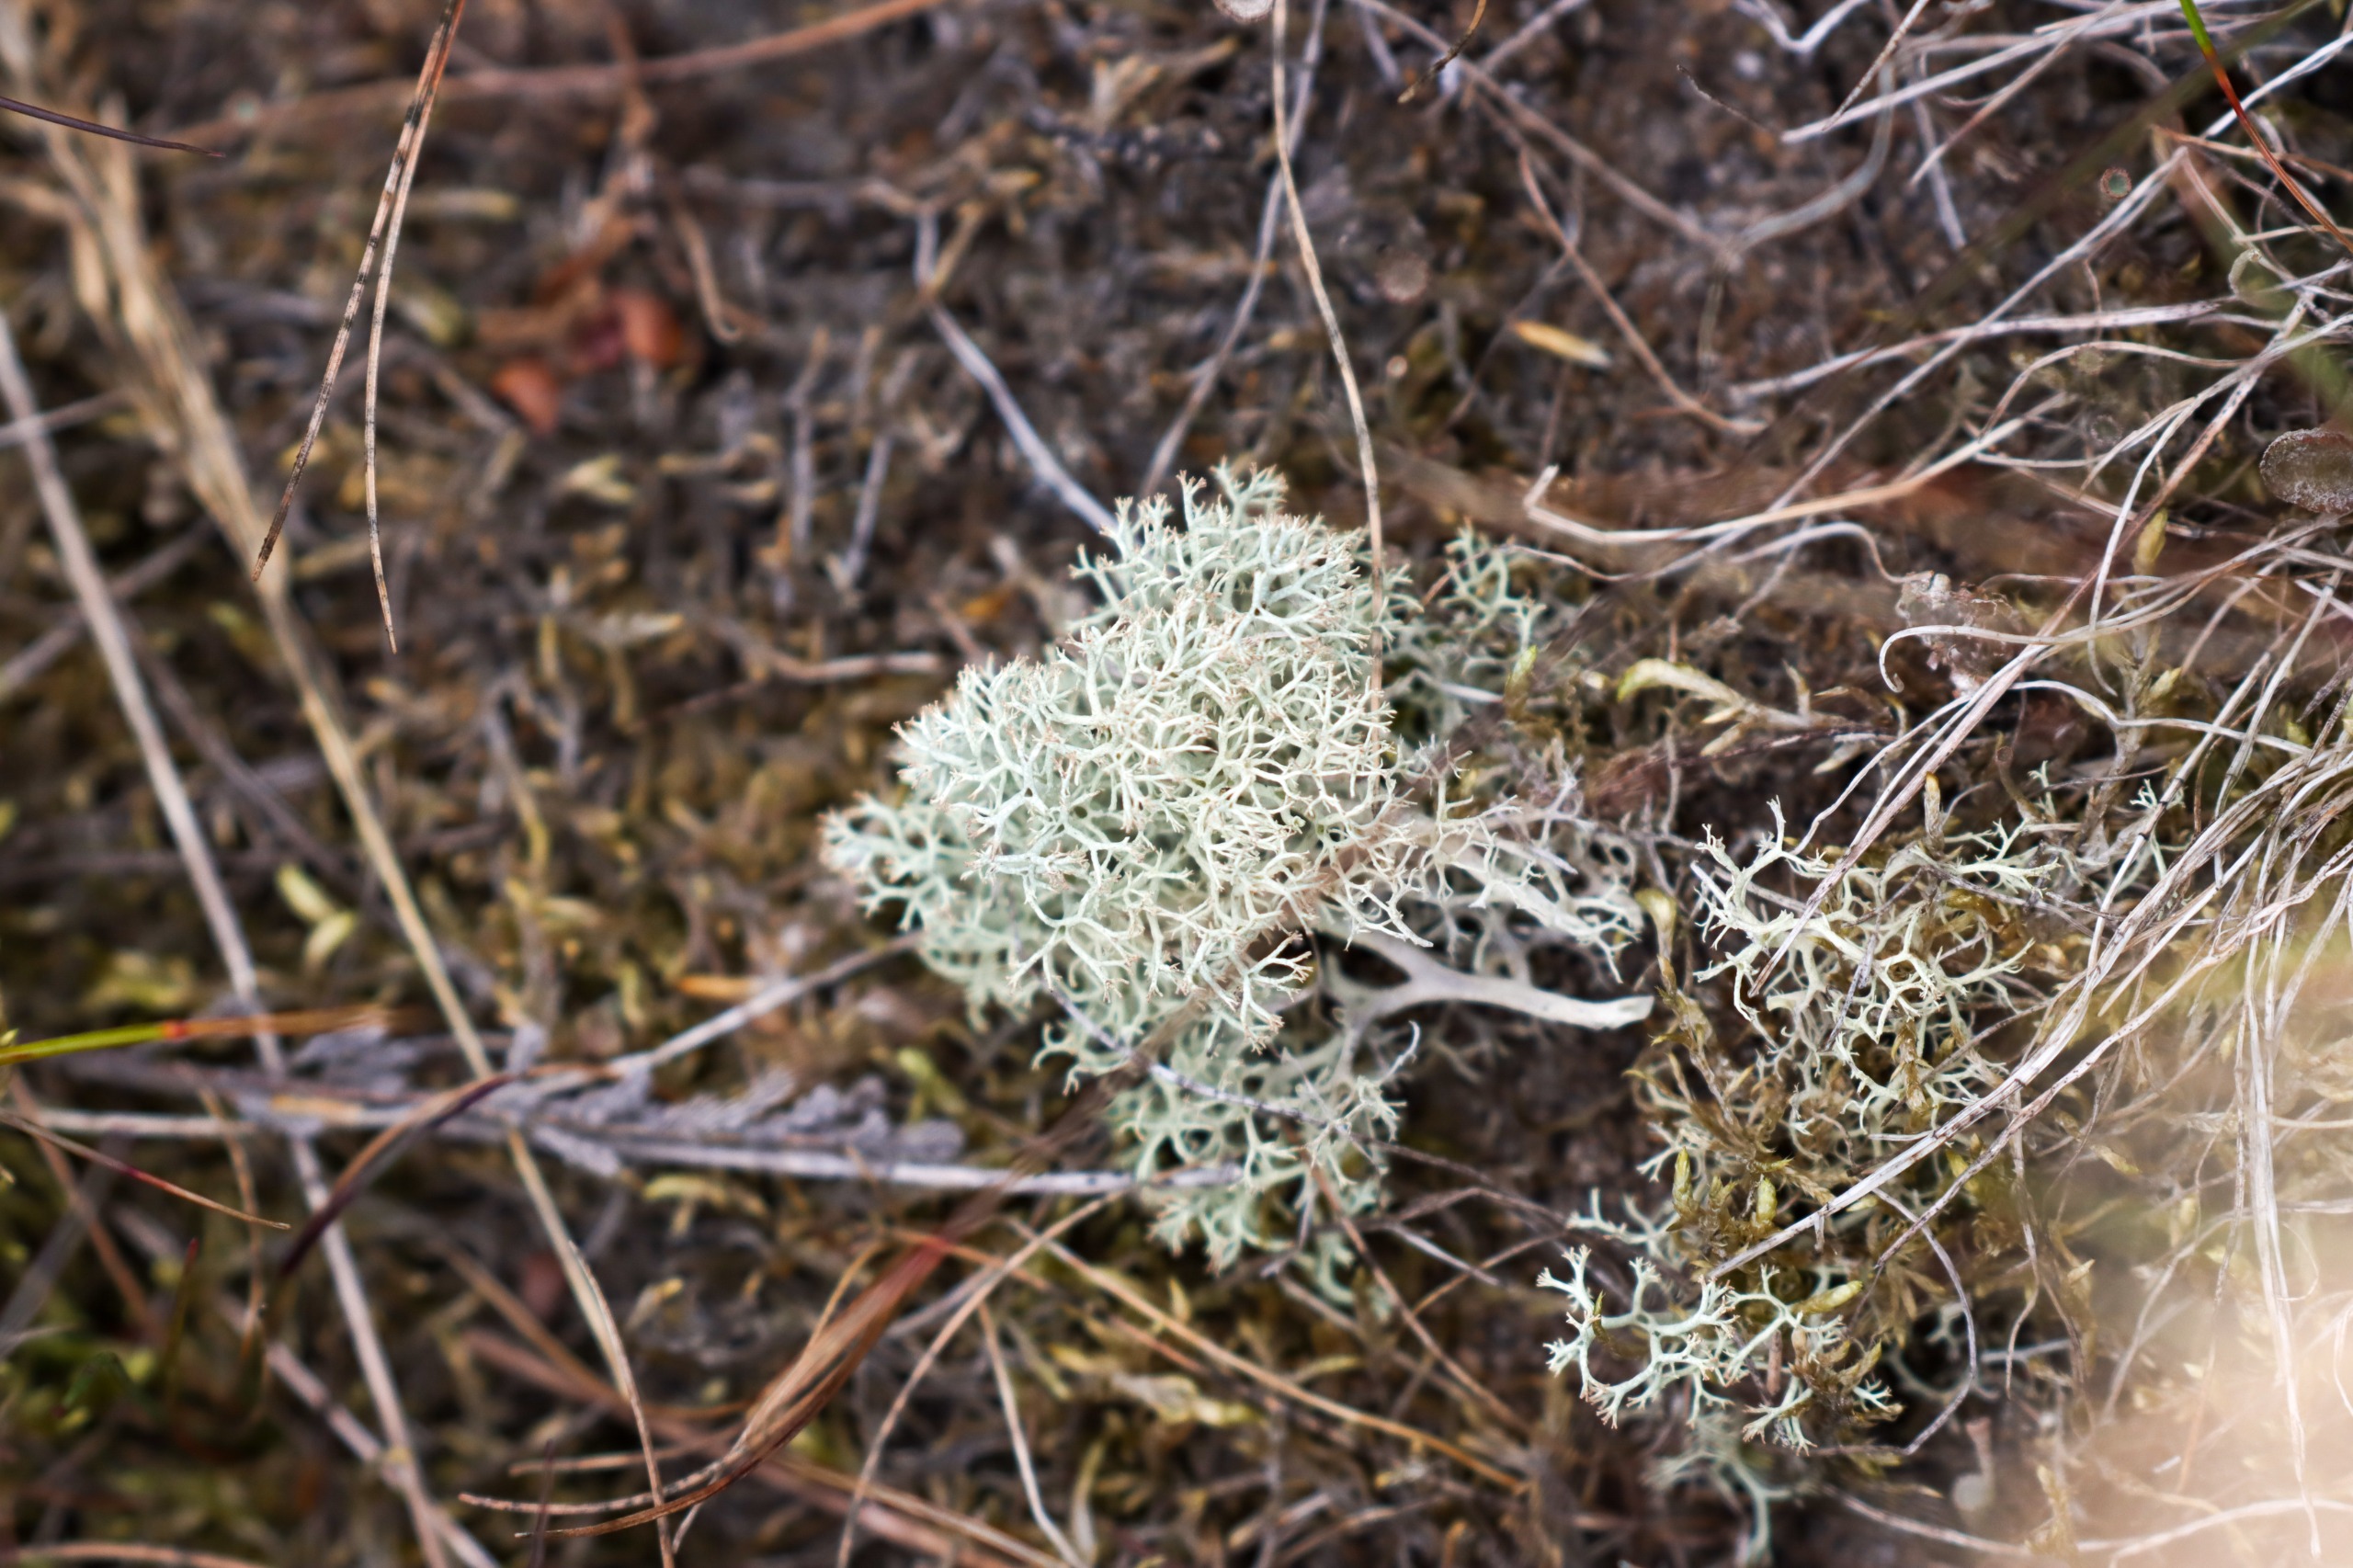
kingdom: Fungi
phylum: Ascomycota
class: Lecanoromycetes
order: Lecanorales
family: Cladoniaceae
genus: Cladonia
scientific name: Cladonia ciliata
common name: Spinkel rensdyrlav
